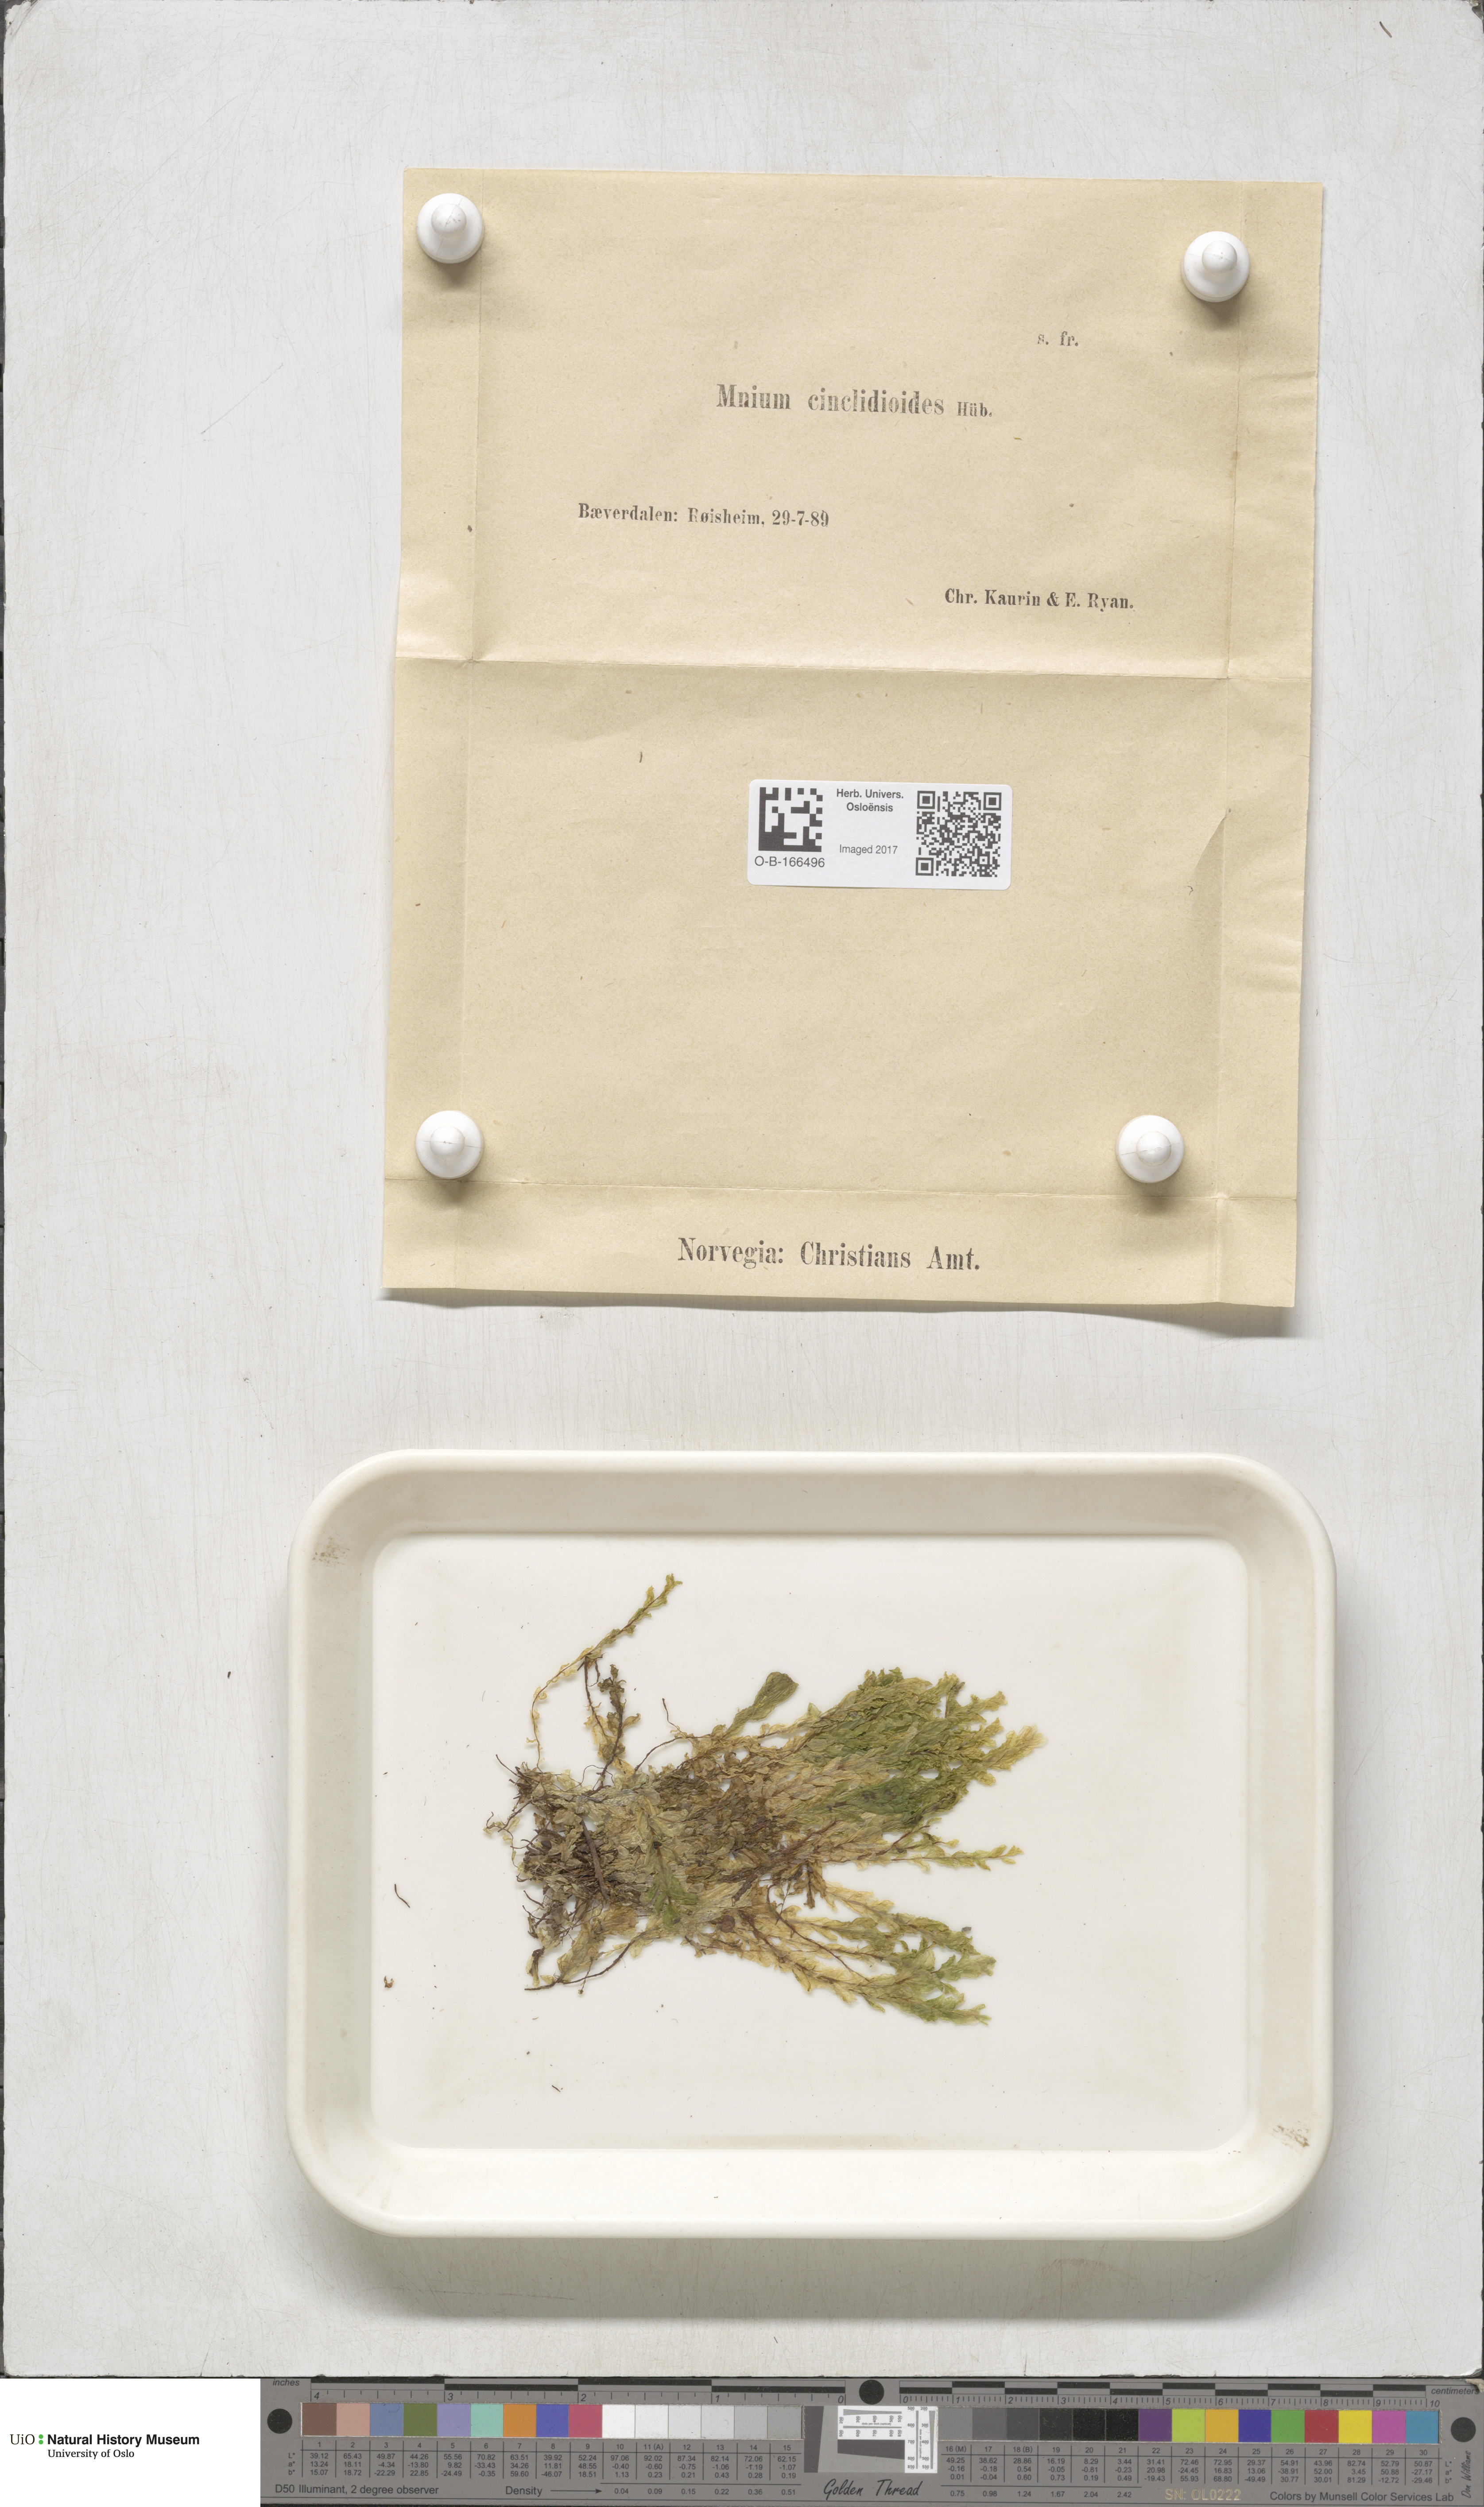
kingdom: Plantae
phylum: Bryophyta
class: Bryopsida
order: Bryales
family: Mniaceae
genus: Pseudobryum
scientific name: Pseudobryum cinclidioides
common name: River thyme moss
